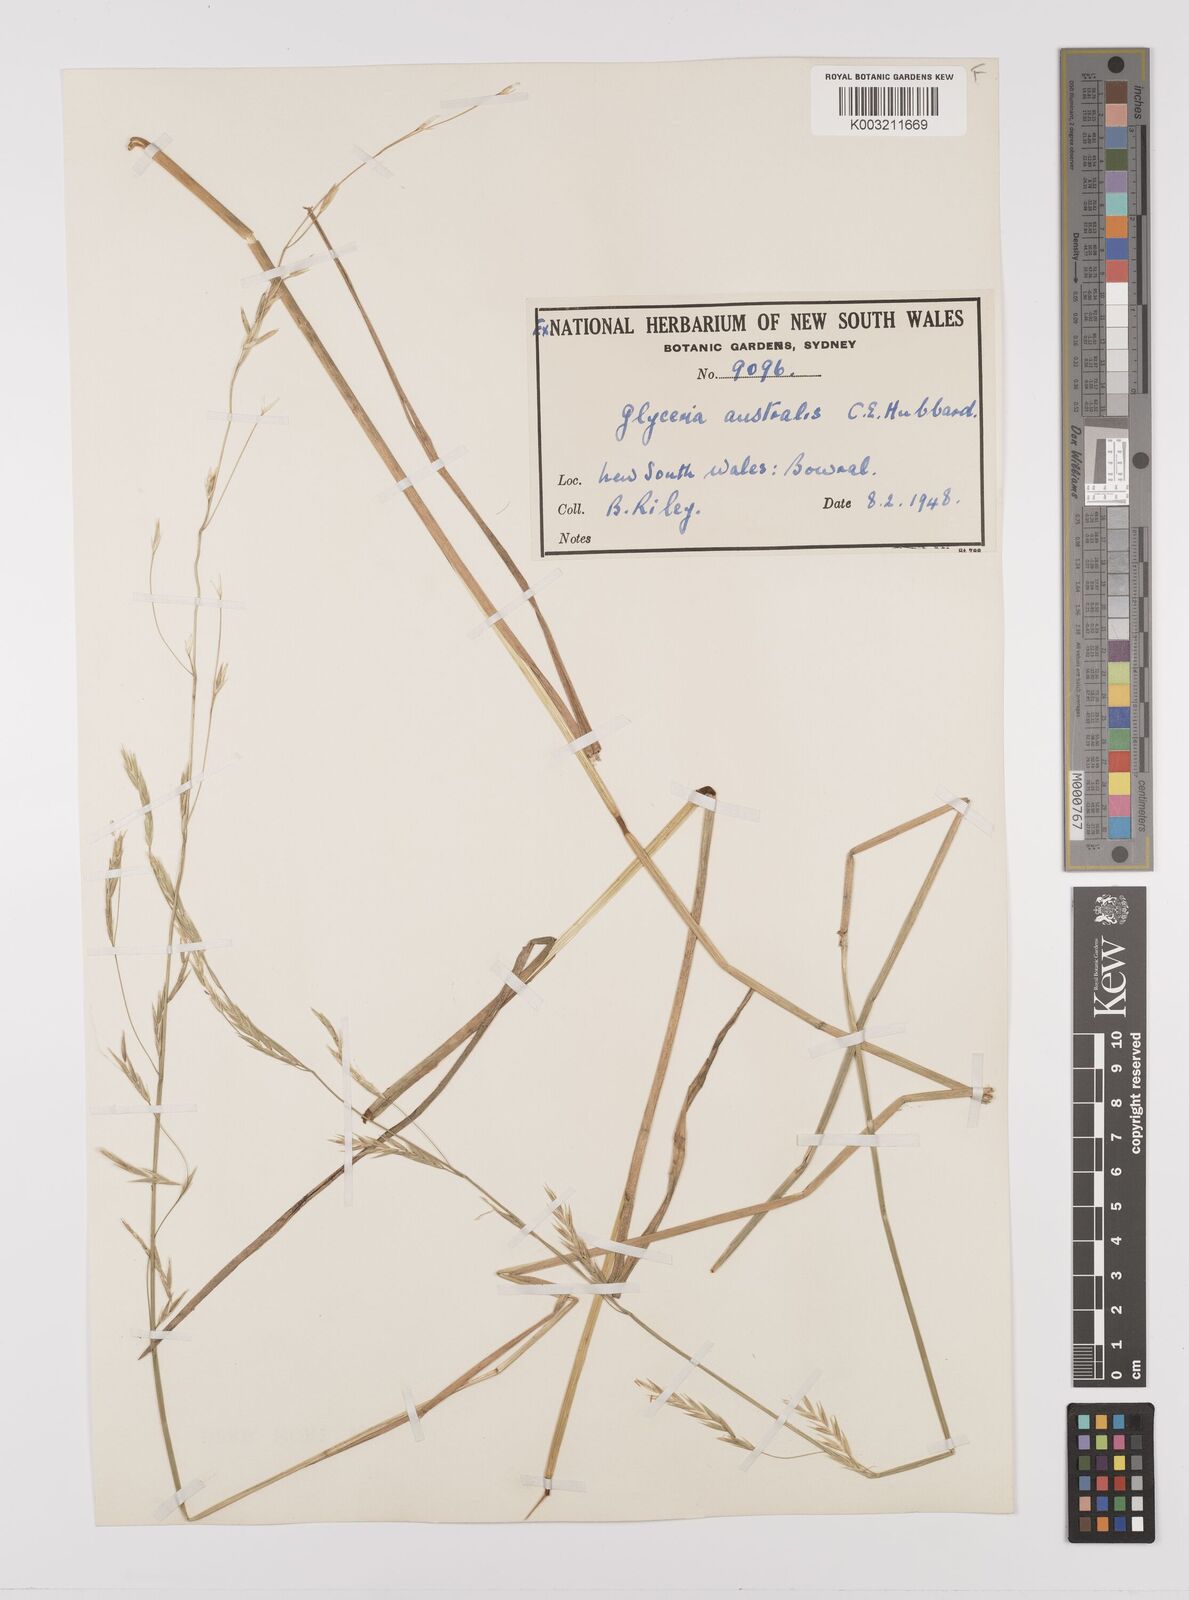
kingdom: Plantae
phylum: Tracheophyta
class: Liliopsida
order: Poales
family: Poaceae
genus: Glyceria
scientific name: Glyceria australis
